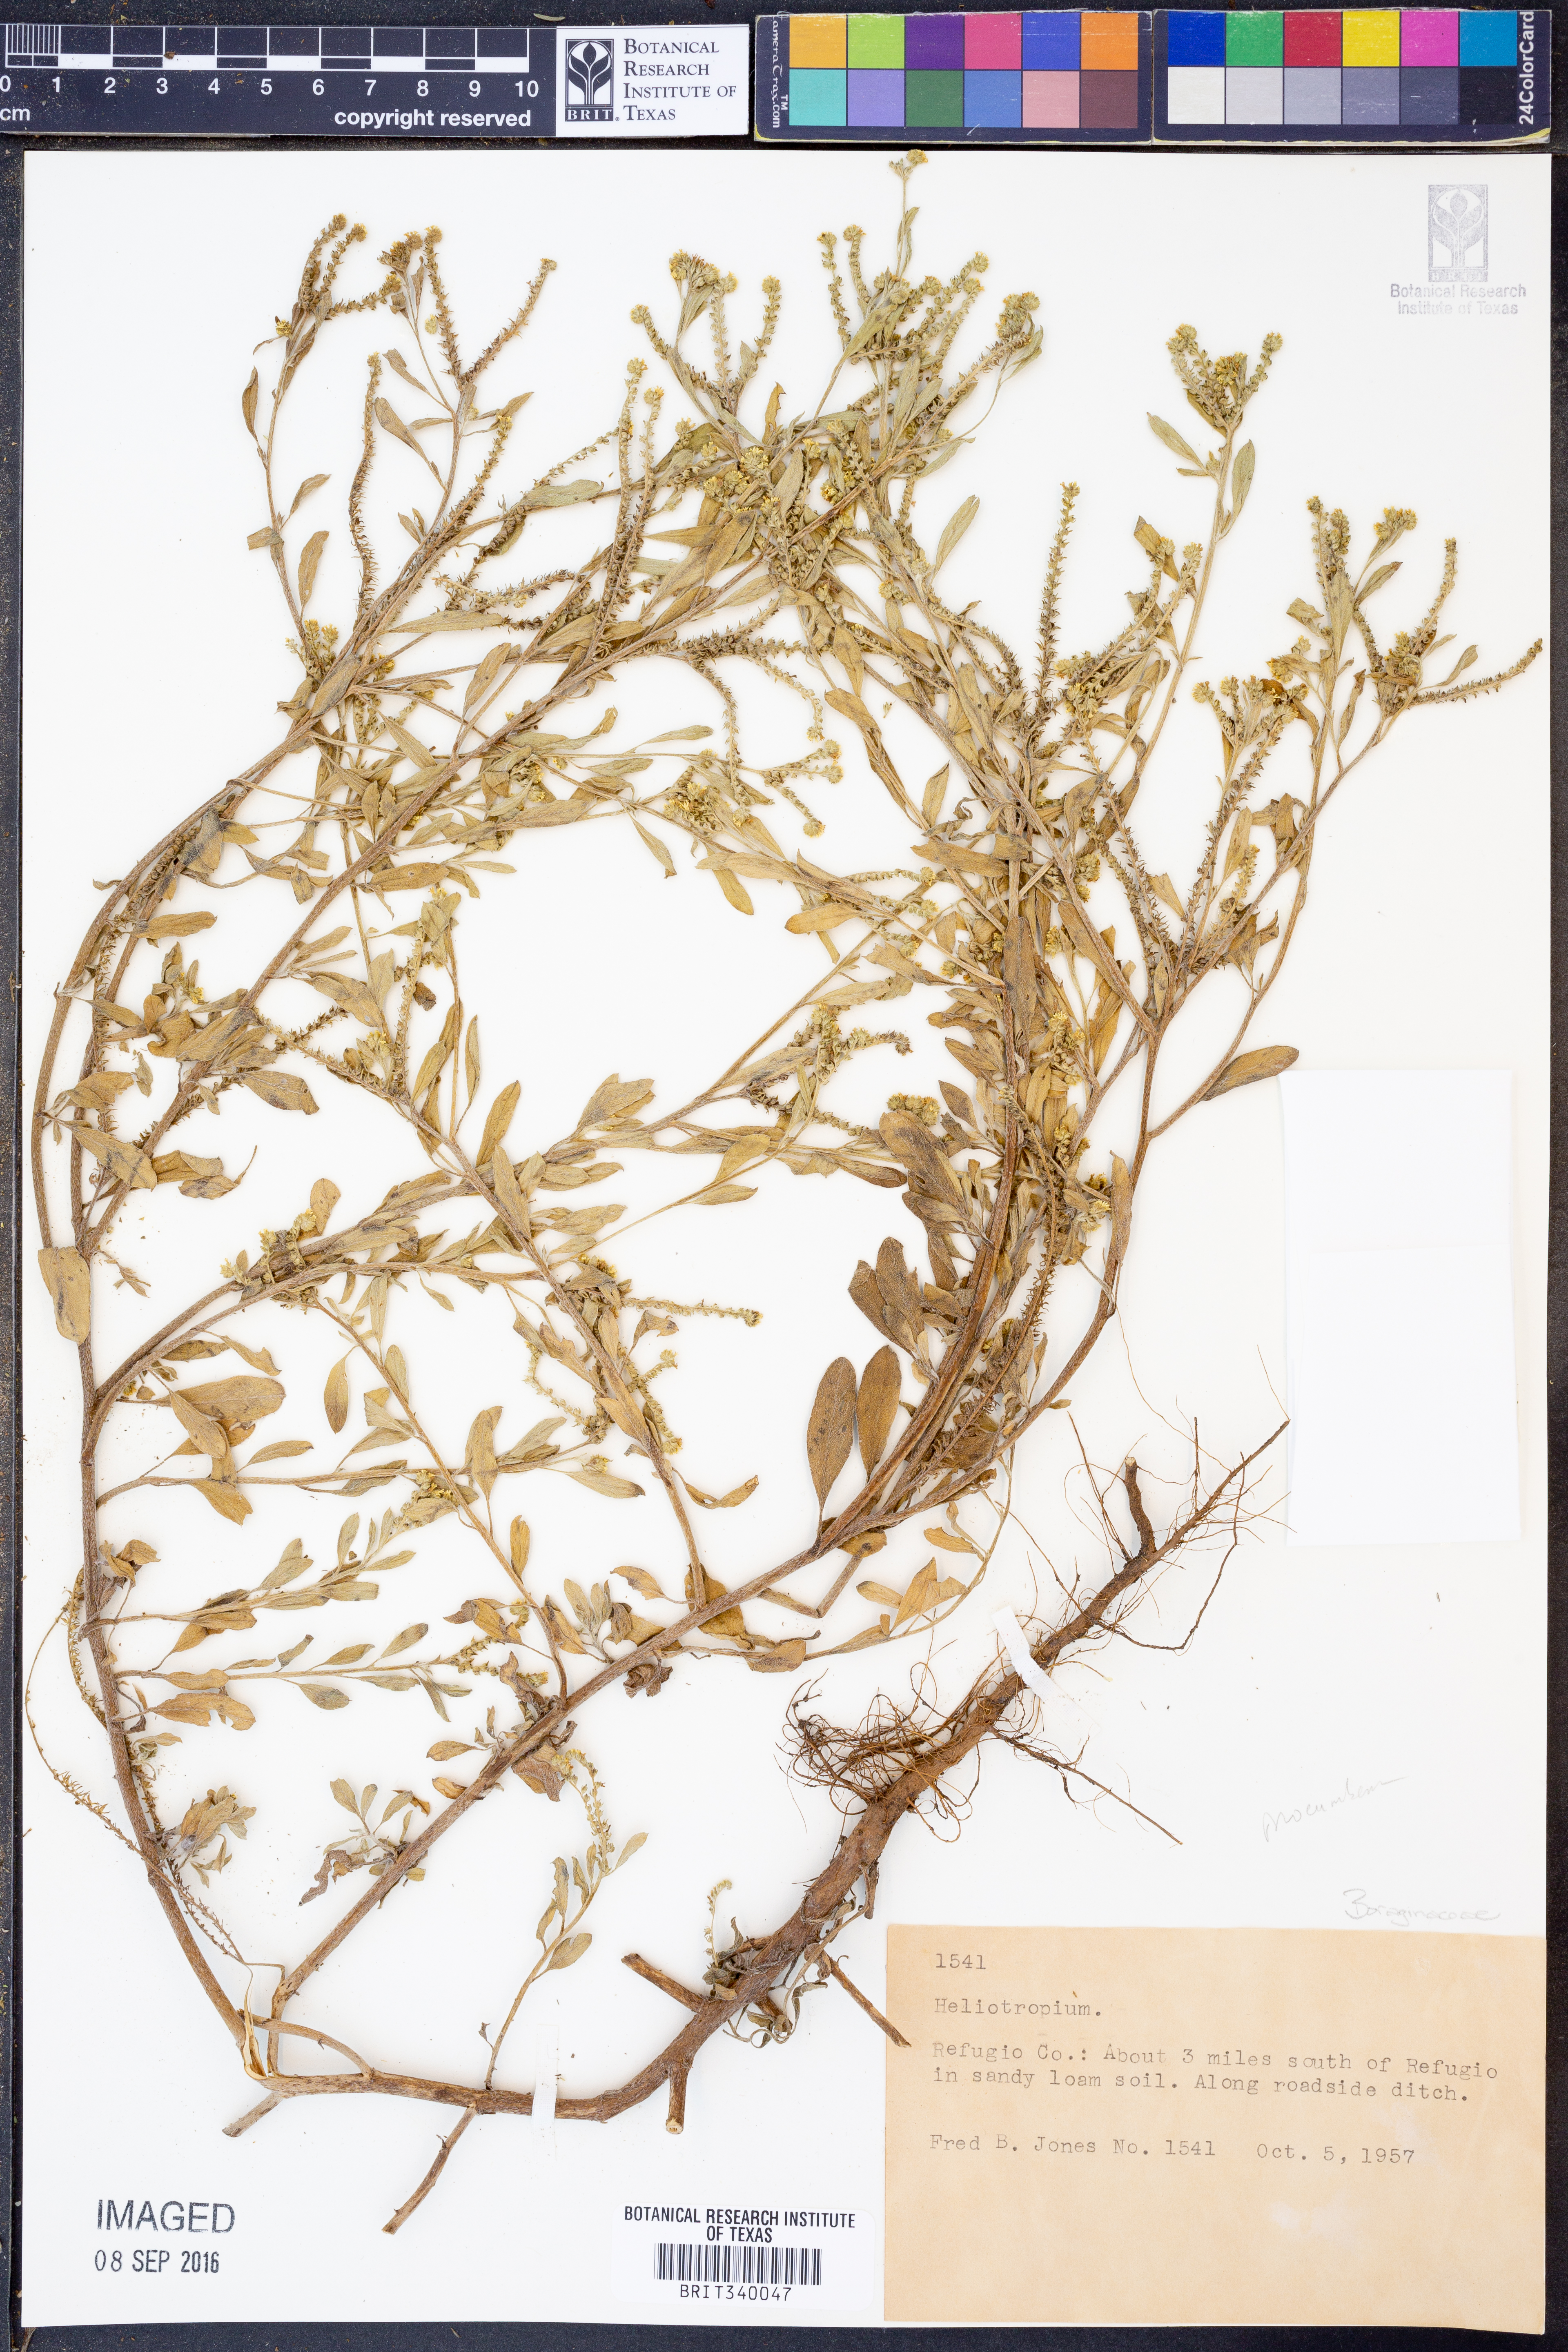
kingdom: Plantae
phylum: Tracheophyta
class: Magnoliopsida
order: Boraginales
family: Heliotropiaceae
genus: Heliotropium
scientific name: Heliotropium
